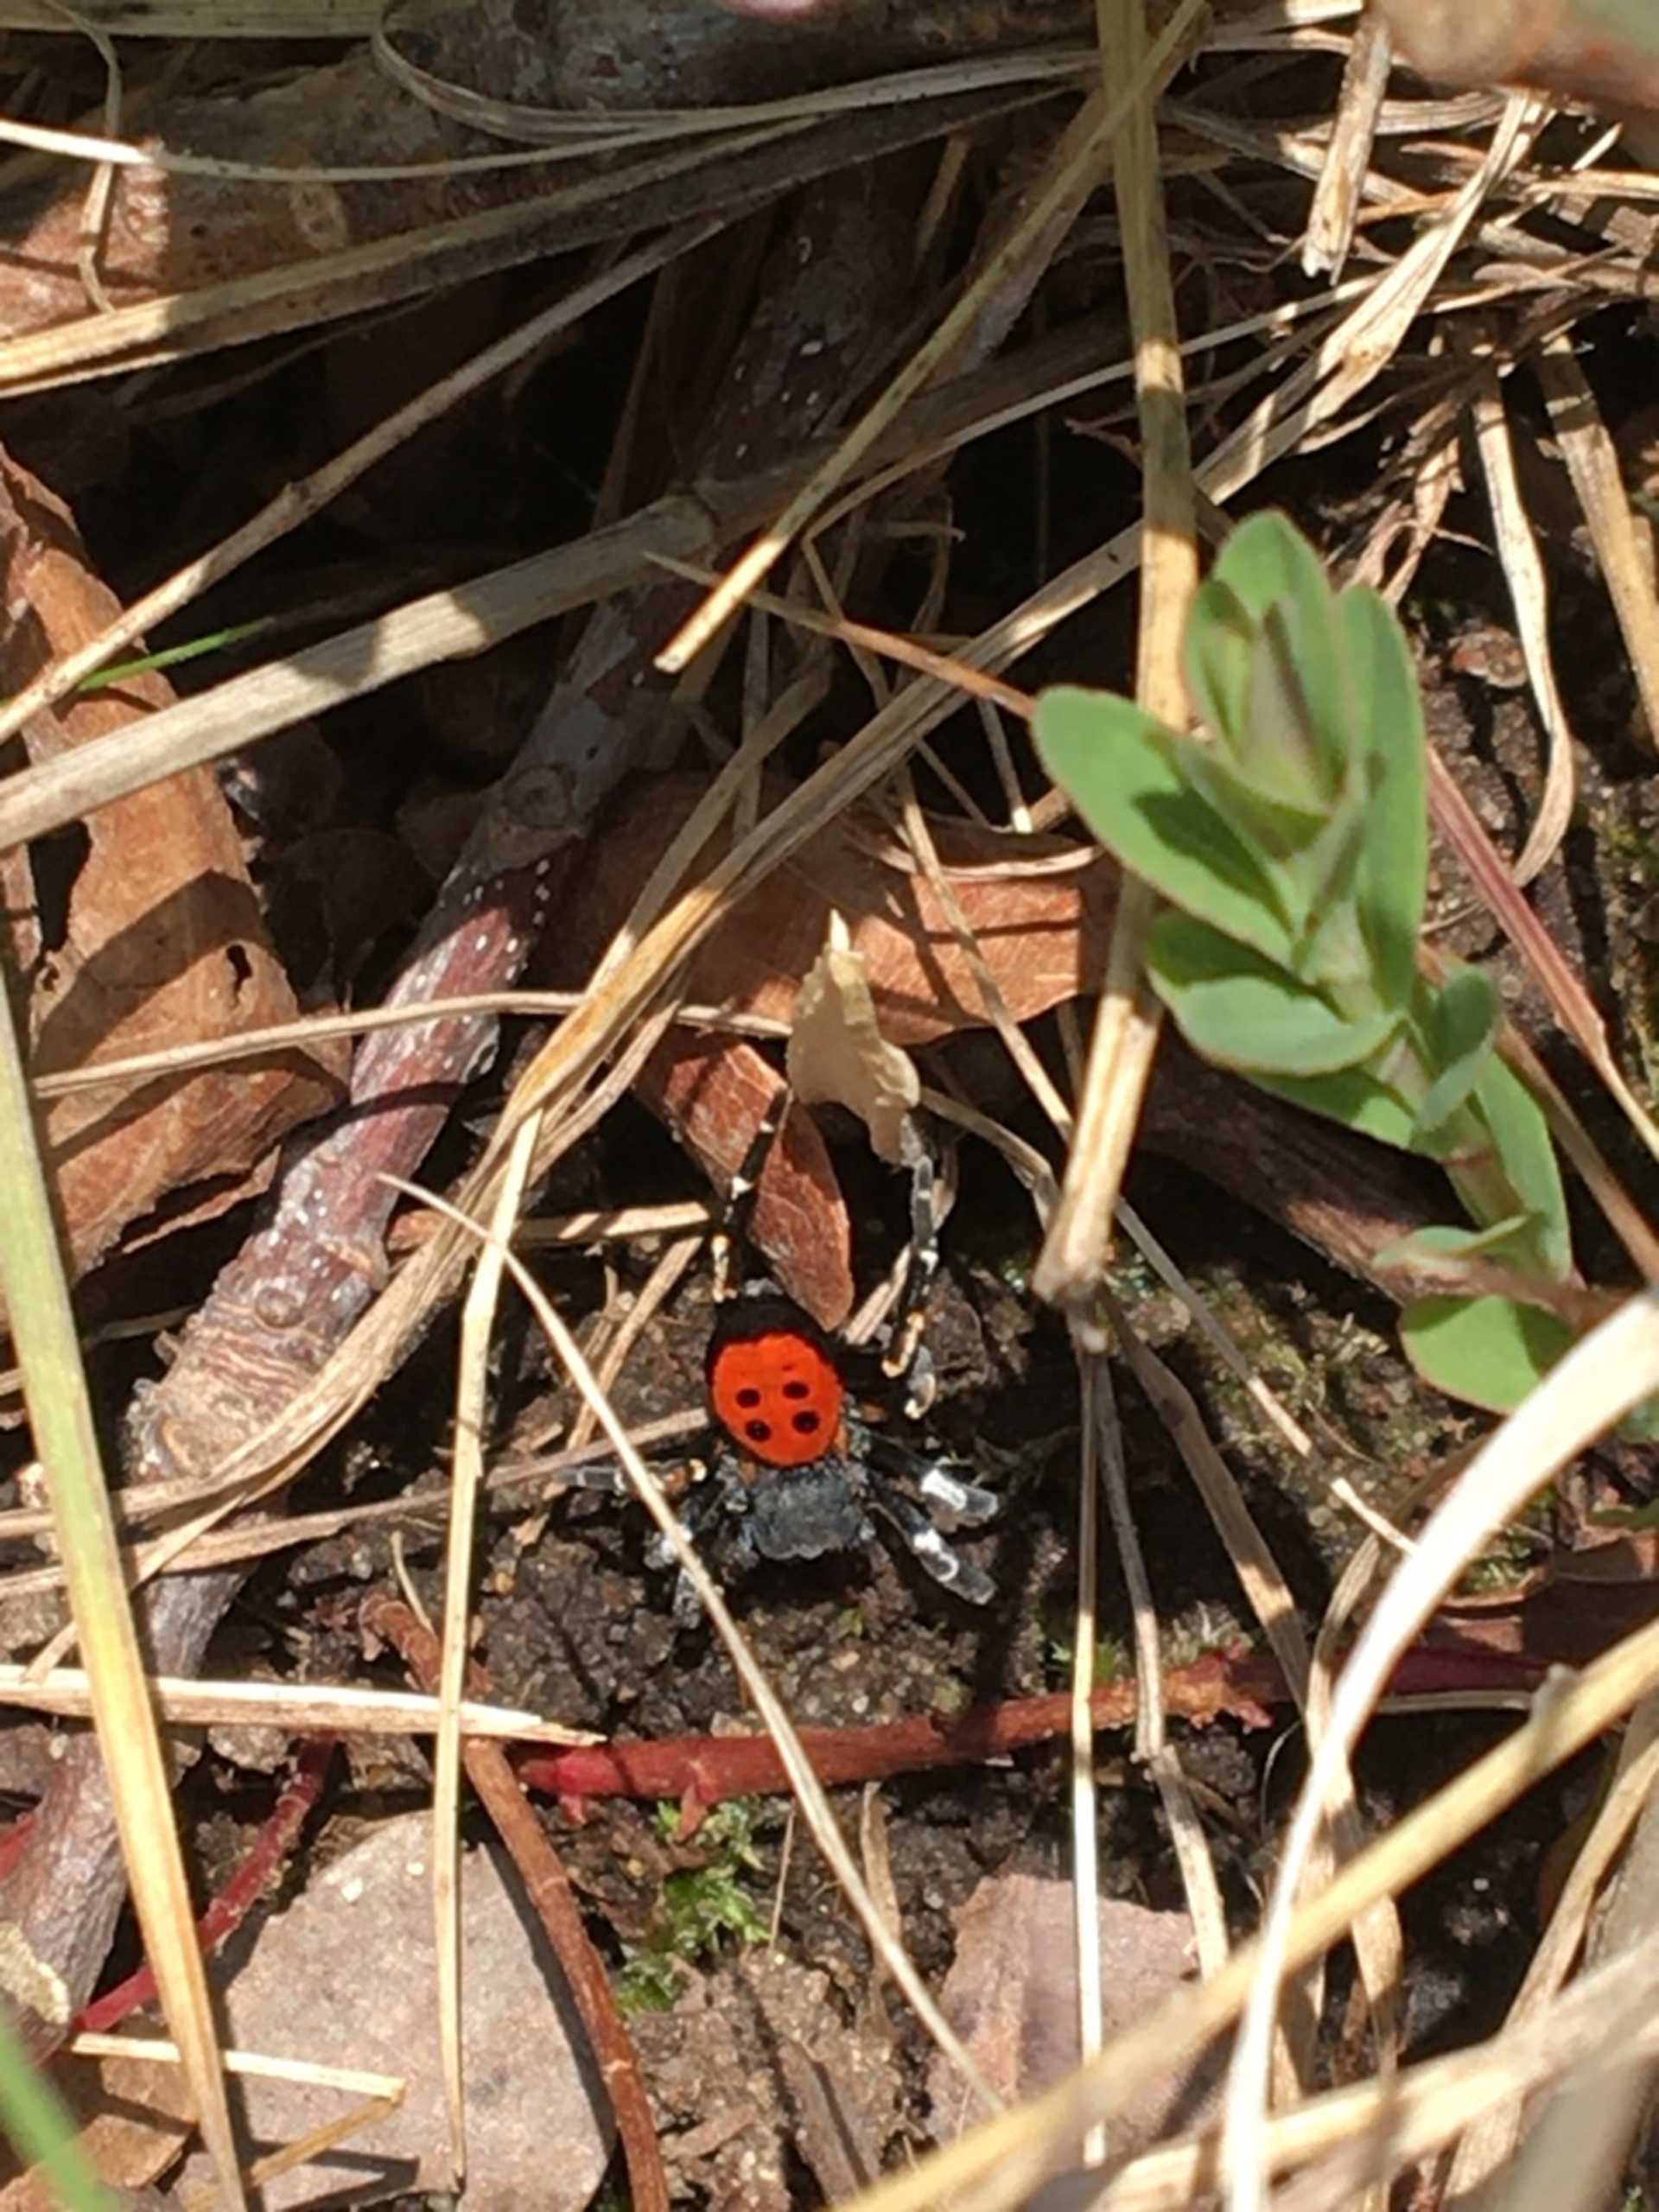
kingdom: Animalia
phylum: Arthropoda
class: Arachnida
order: Araneae
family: Eresidae
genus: Eresus
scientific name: Eresus sandaliatus
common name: Mariehøneedderkop
